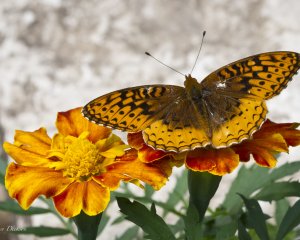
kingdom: Animalia
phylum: Arthropoda
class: Insecta
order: Lepidoptera
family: Nymphalidae
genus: Speyeria
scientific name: Speyeria cybele
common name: Great Spangled Fritillary
